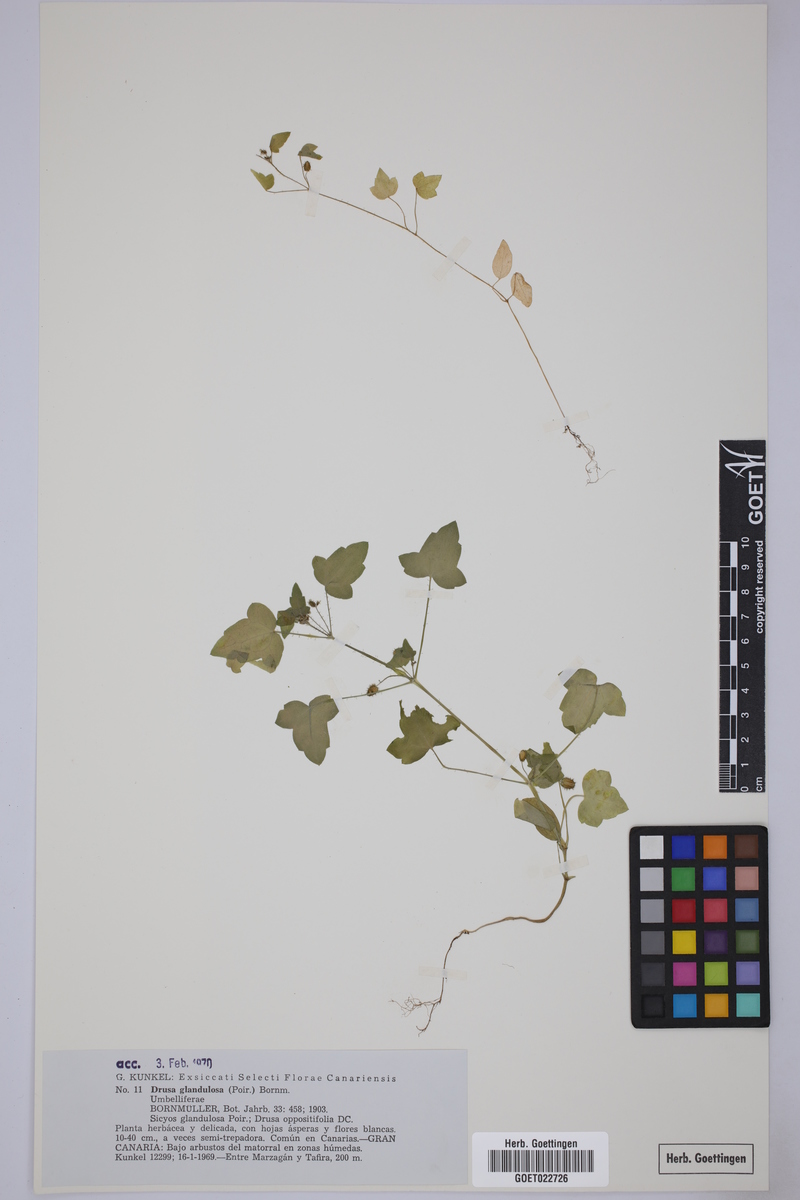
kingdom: Plantae
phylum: Tracheophyta
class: Magnoliopsida
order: Apiales
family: Apiaceae
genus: Drusa
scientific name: Drusa glandulosa
